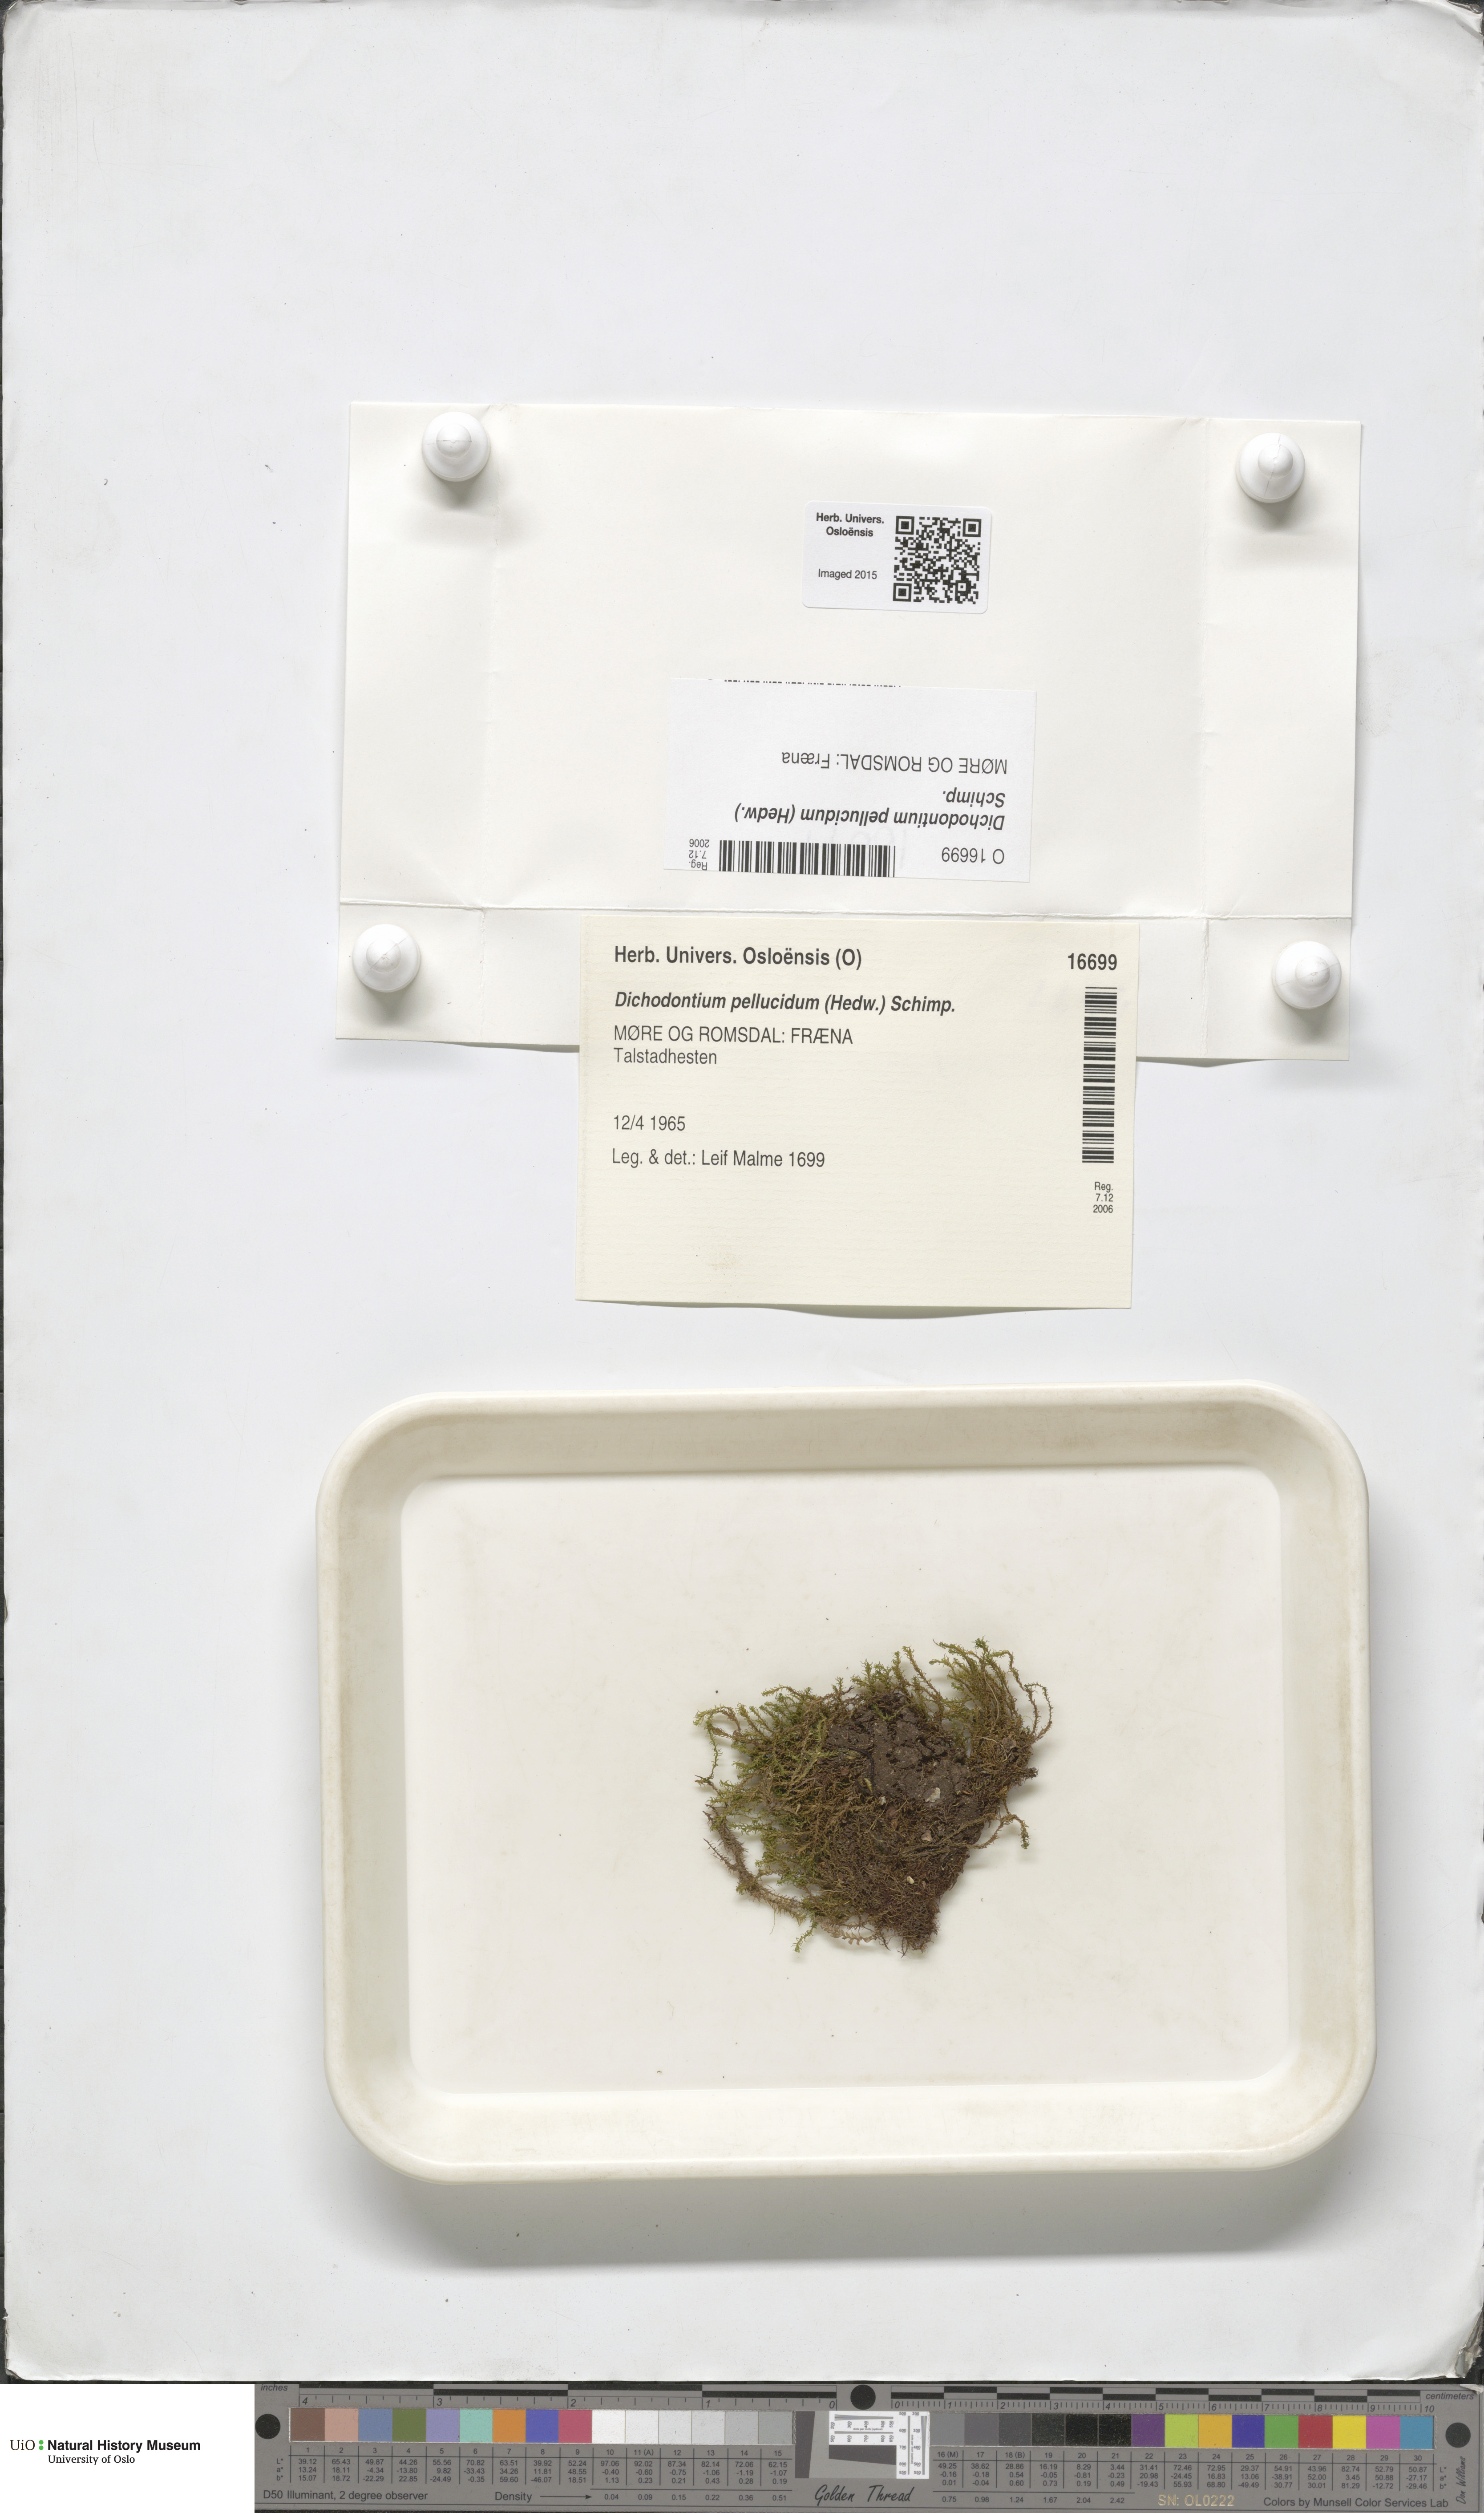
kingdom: Plantae
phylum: Bryophyta
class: Bryopsida
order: Dicranales
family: Aongstroemiaceae
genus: Dichodontium
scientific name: Dichodontium pellucidum
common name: Transparent fork moss
